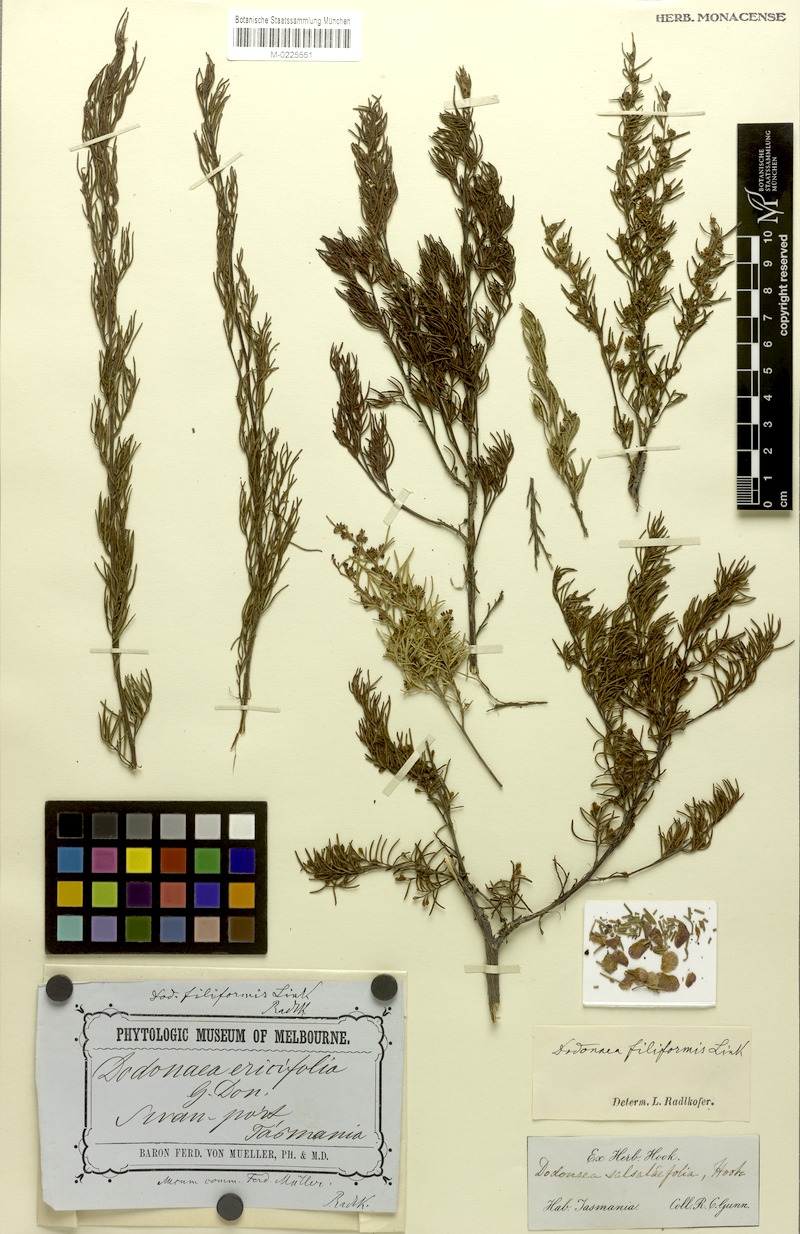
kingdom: Plantae
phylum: Tracheophyta
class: Magnoliopsida
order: Sapindales
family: Sapindaceae
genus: Dodonaea
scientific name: Dodonaea filiformis
